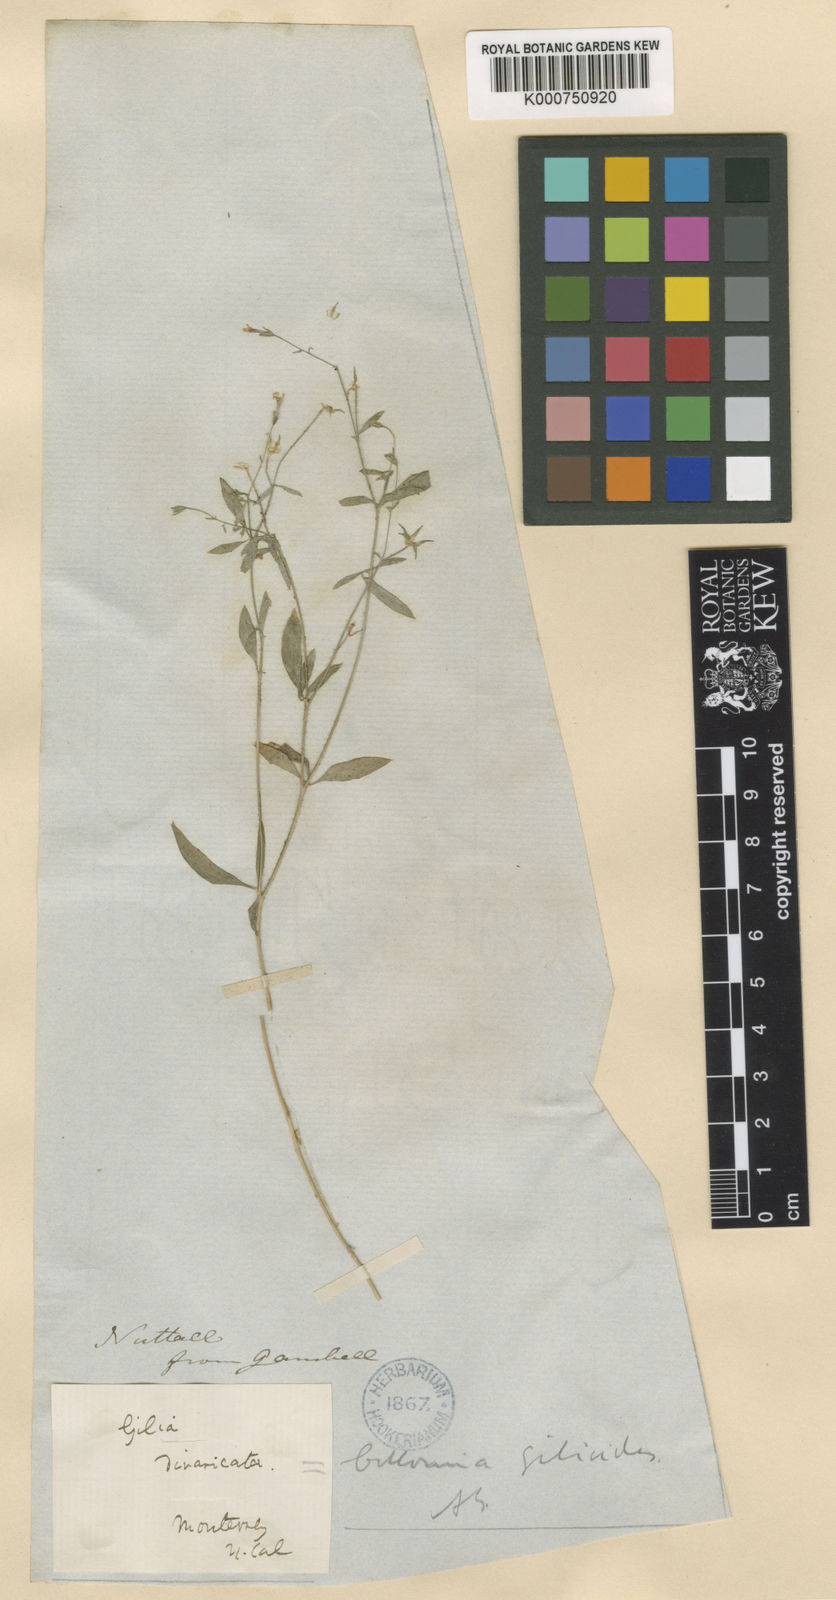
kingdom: Plantae
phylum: Tracheophyta
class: Magnoliopsida
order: Ericales
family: Polemoniaceae
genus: Allophyllum
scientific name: Allophyllum divaricatum
